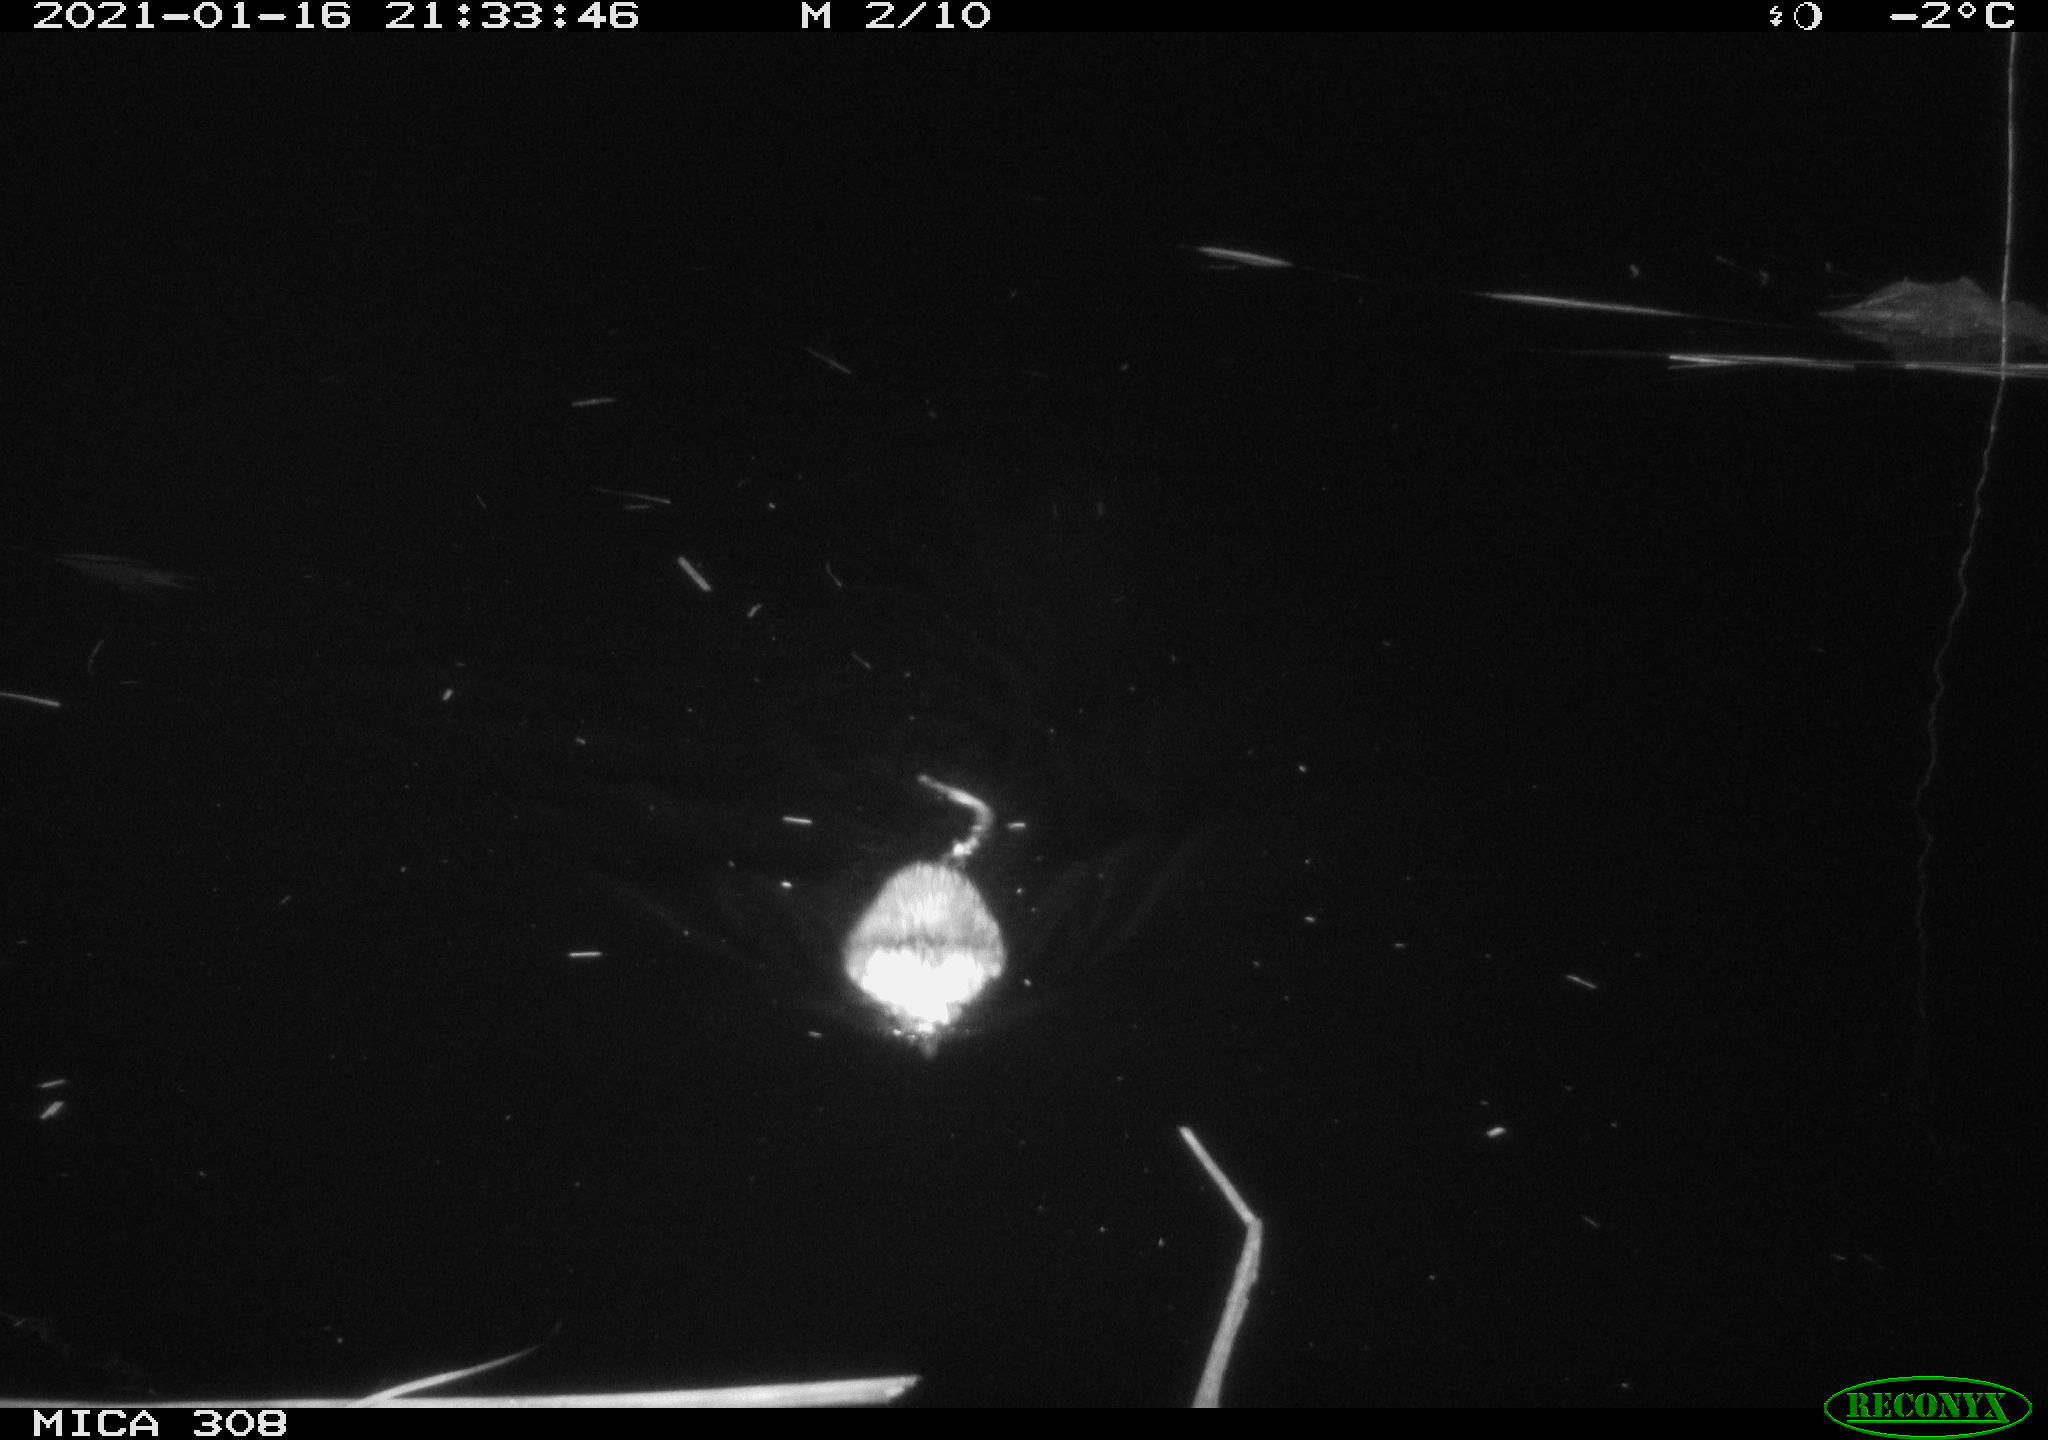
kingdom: Animalia
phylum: Chordata
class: Mammalia
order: Rodentia
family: Cricetidae
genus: Ondatra
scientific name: Ondatra zibethicus
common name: Muskrat
